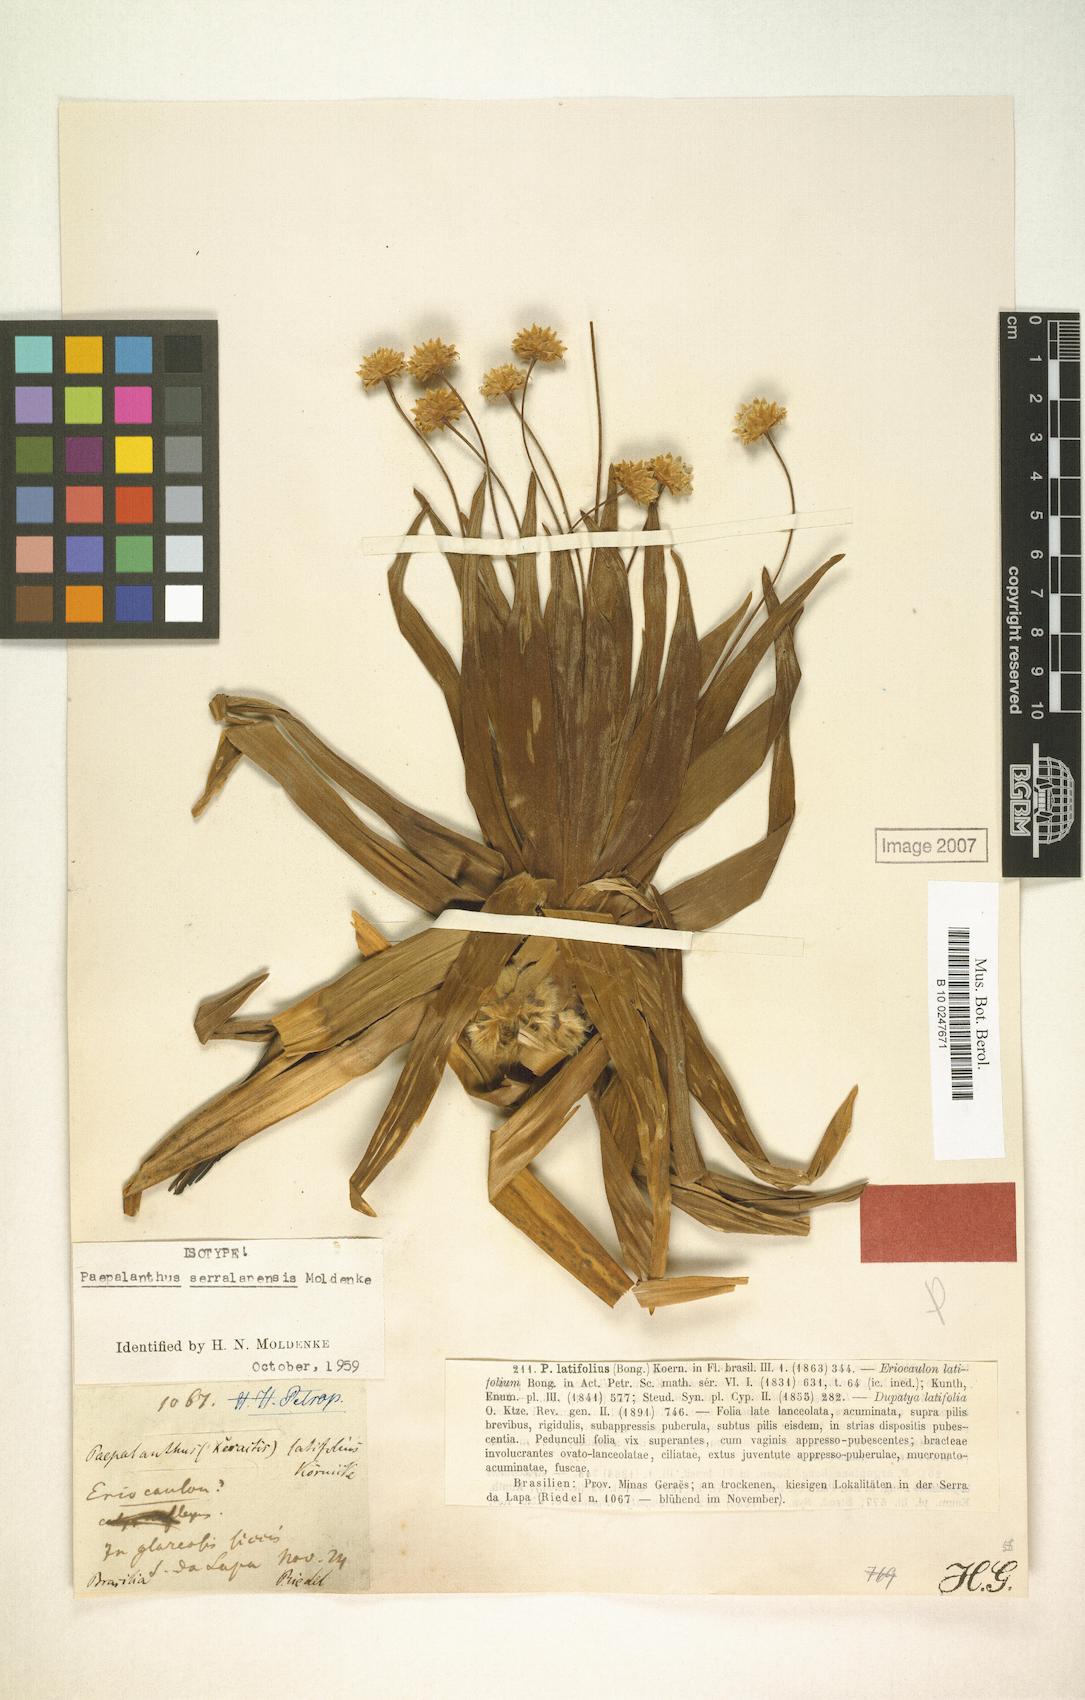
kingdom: Plantae
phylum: Tracheophyta
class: Liliopsida
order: Poales
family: Eriocaulaceae
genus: Paepalanthus
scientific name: Paepalanthus latifolius
